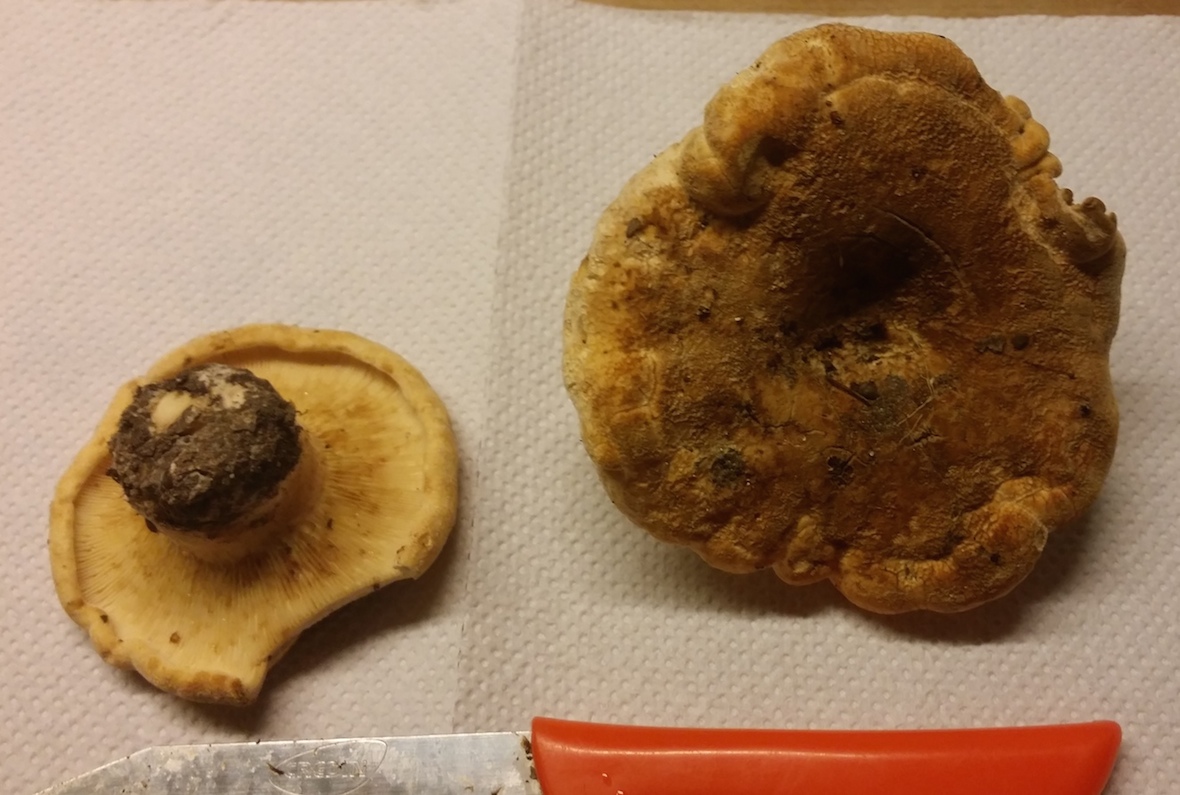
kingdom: Fungi
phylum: Basidiomycota
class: Agaricomycetes
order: Russulales
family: Russulaceae
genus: Lactarius
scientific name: Lactarius
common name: mælkehat
